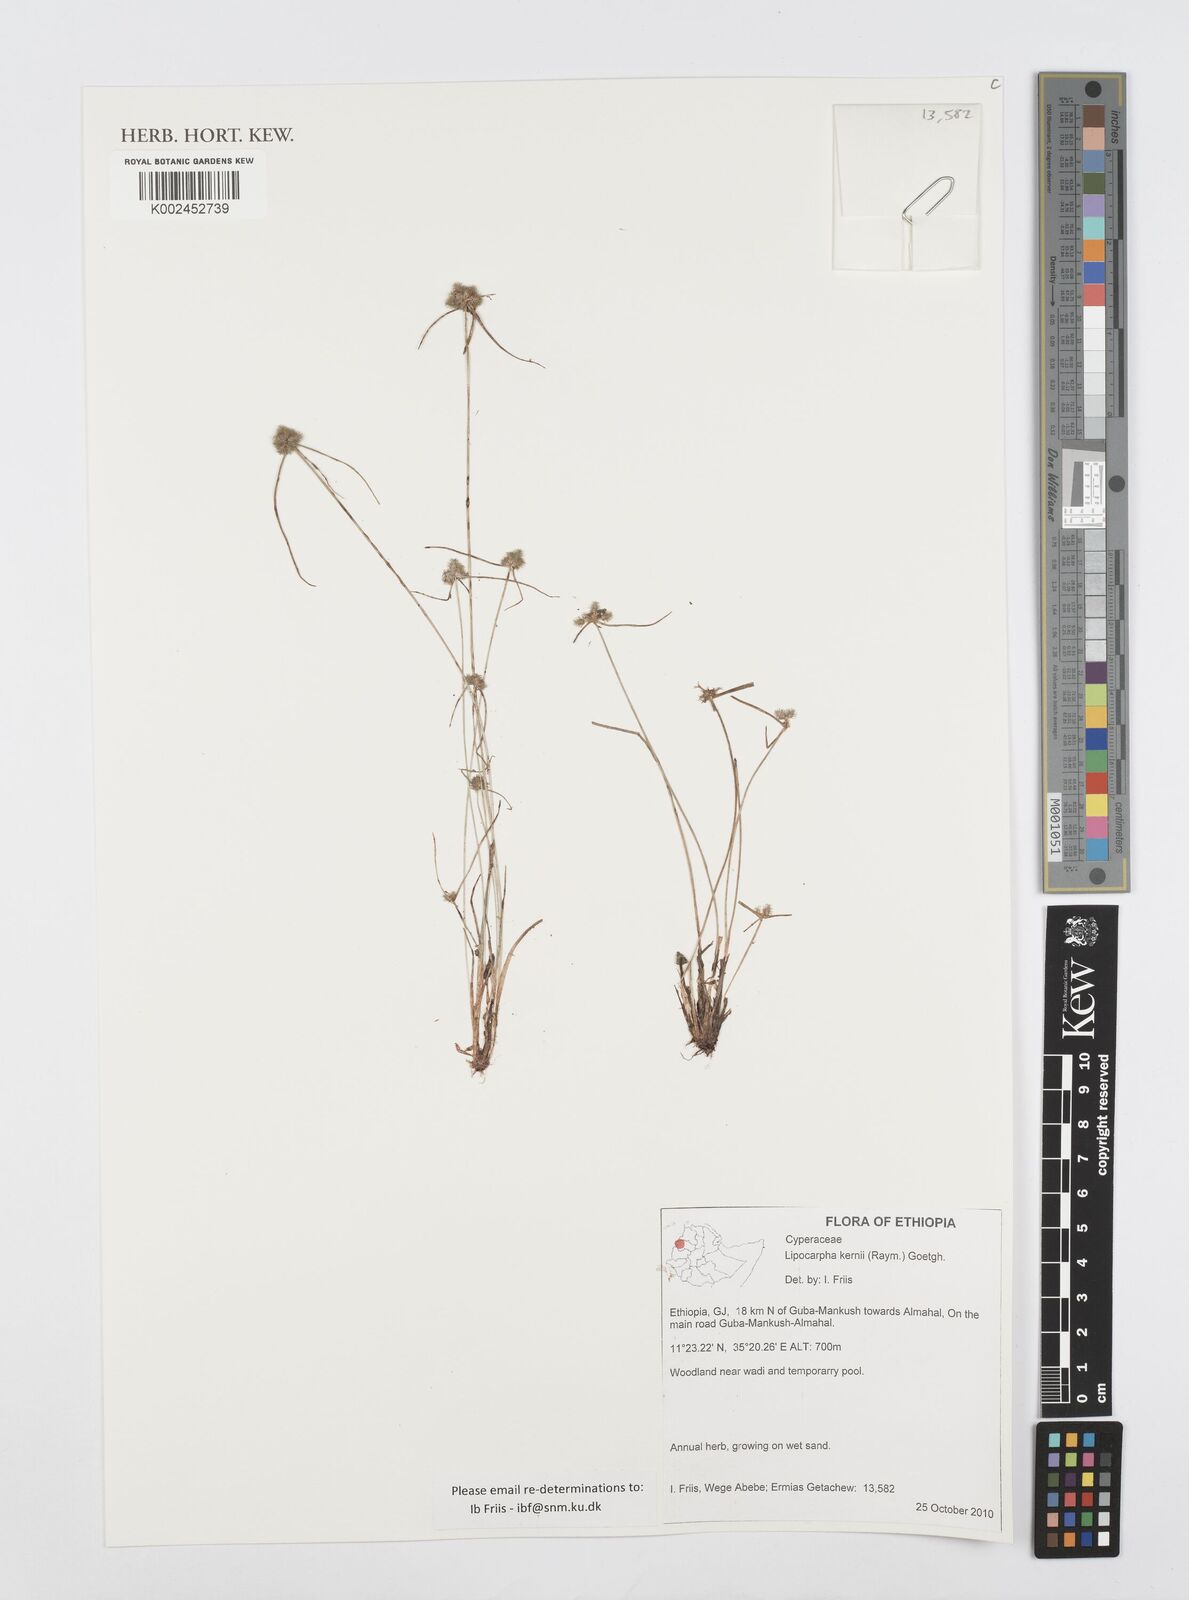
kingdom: Plantae
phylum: Tracheophyta
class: Liliopsida
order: Poales
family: Cyperaceae
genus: Cyperus
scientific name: Cyperus kernii
